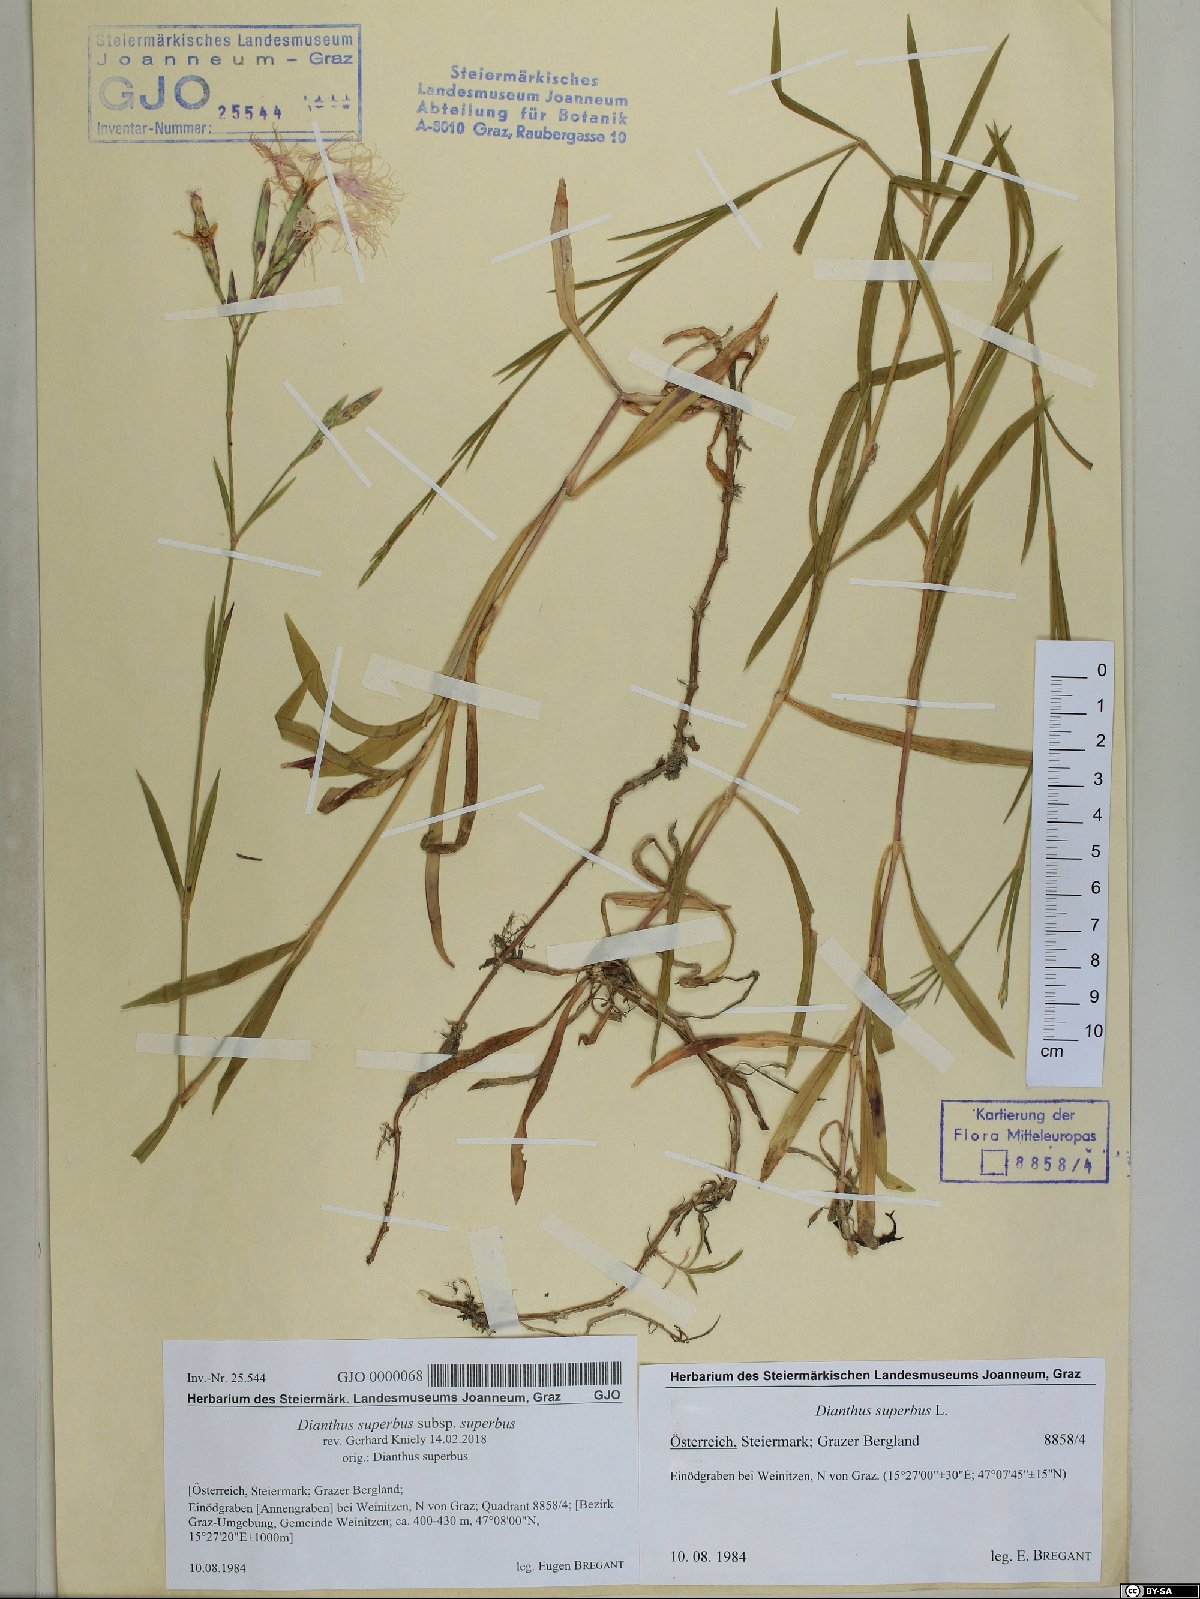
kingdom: Plantae
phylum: Tracheophyta
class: Magnoliopsida
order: Caryophyllales
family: Caryophyllaceae
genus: Dianthus
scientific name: Dianthus superbus
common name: Fringed pink
